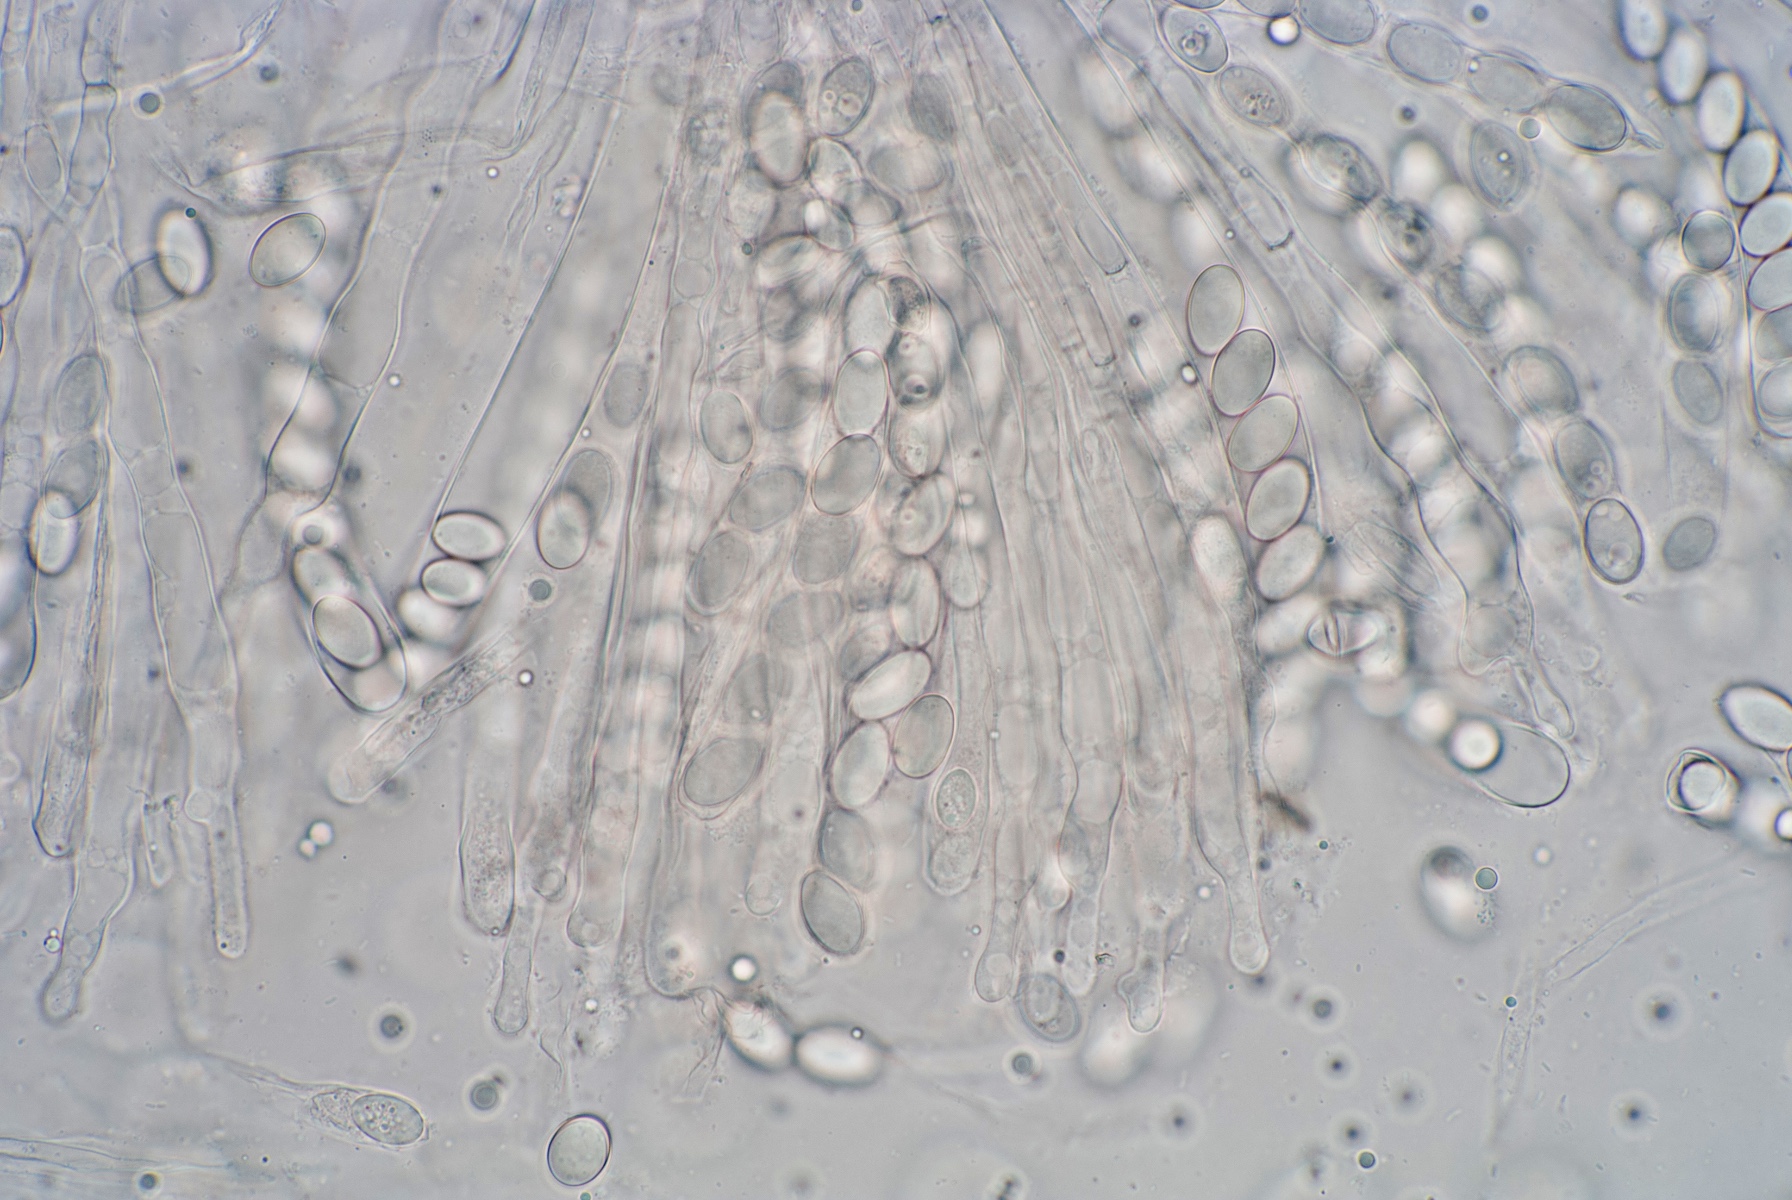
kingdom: Fungi
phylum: Ascomycota
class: Pezizomycetes
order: Pezizales
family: Pyronemataceae
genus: Pyronema
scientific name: Pyronema omphalodes
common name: glat askebæger
